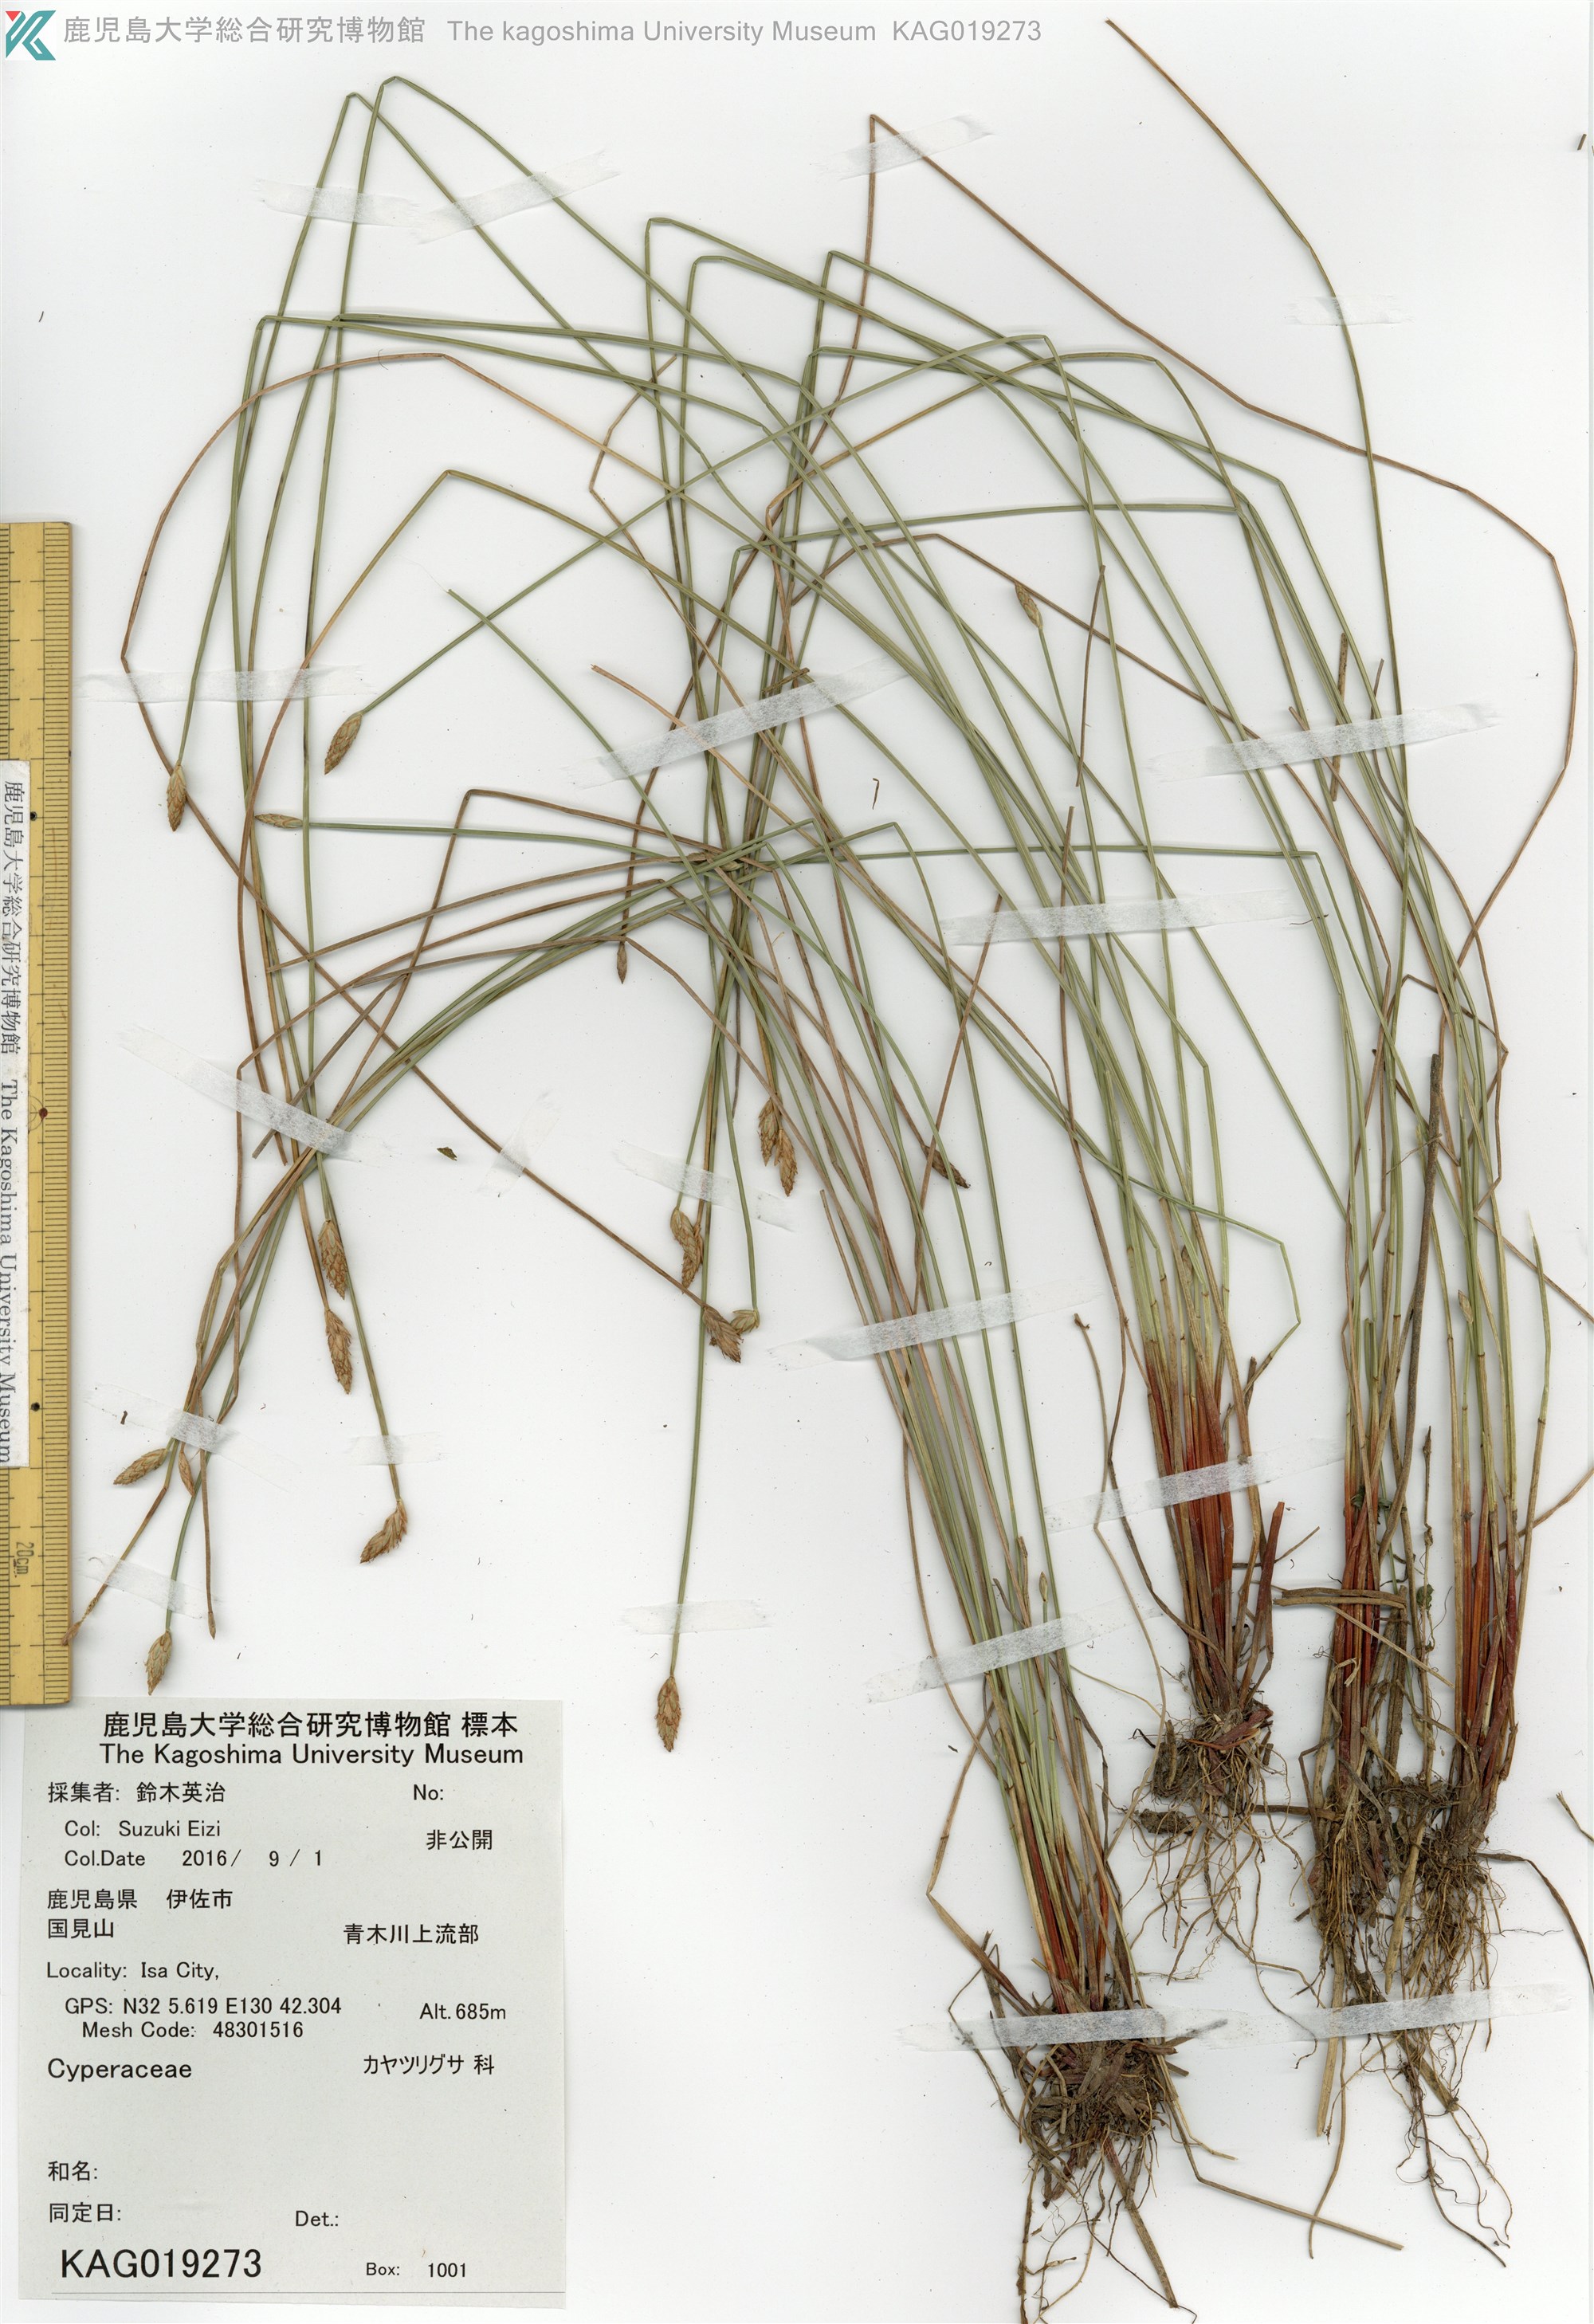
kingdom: Plantae
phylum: Tracheophyta
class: Liliopsida
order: Poales
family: Cyperaceae
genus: Fimbristylis
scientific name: Fimbristylis
